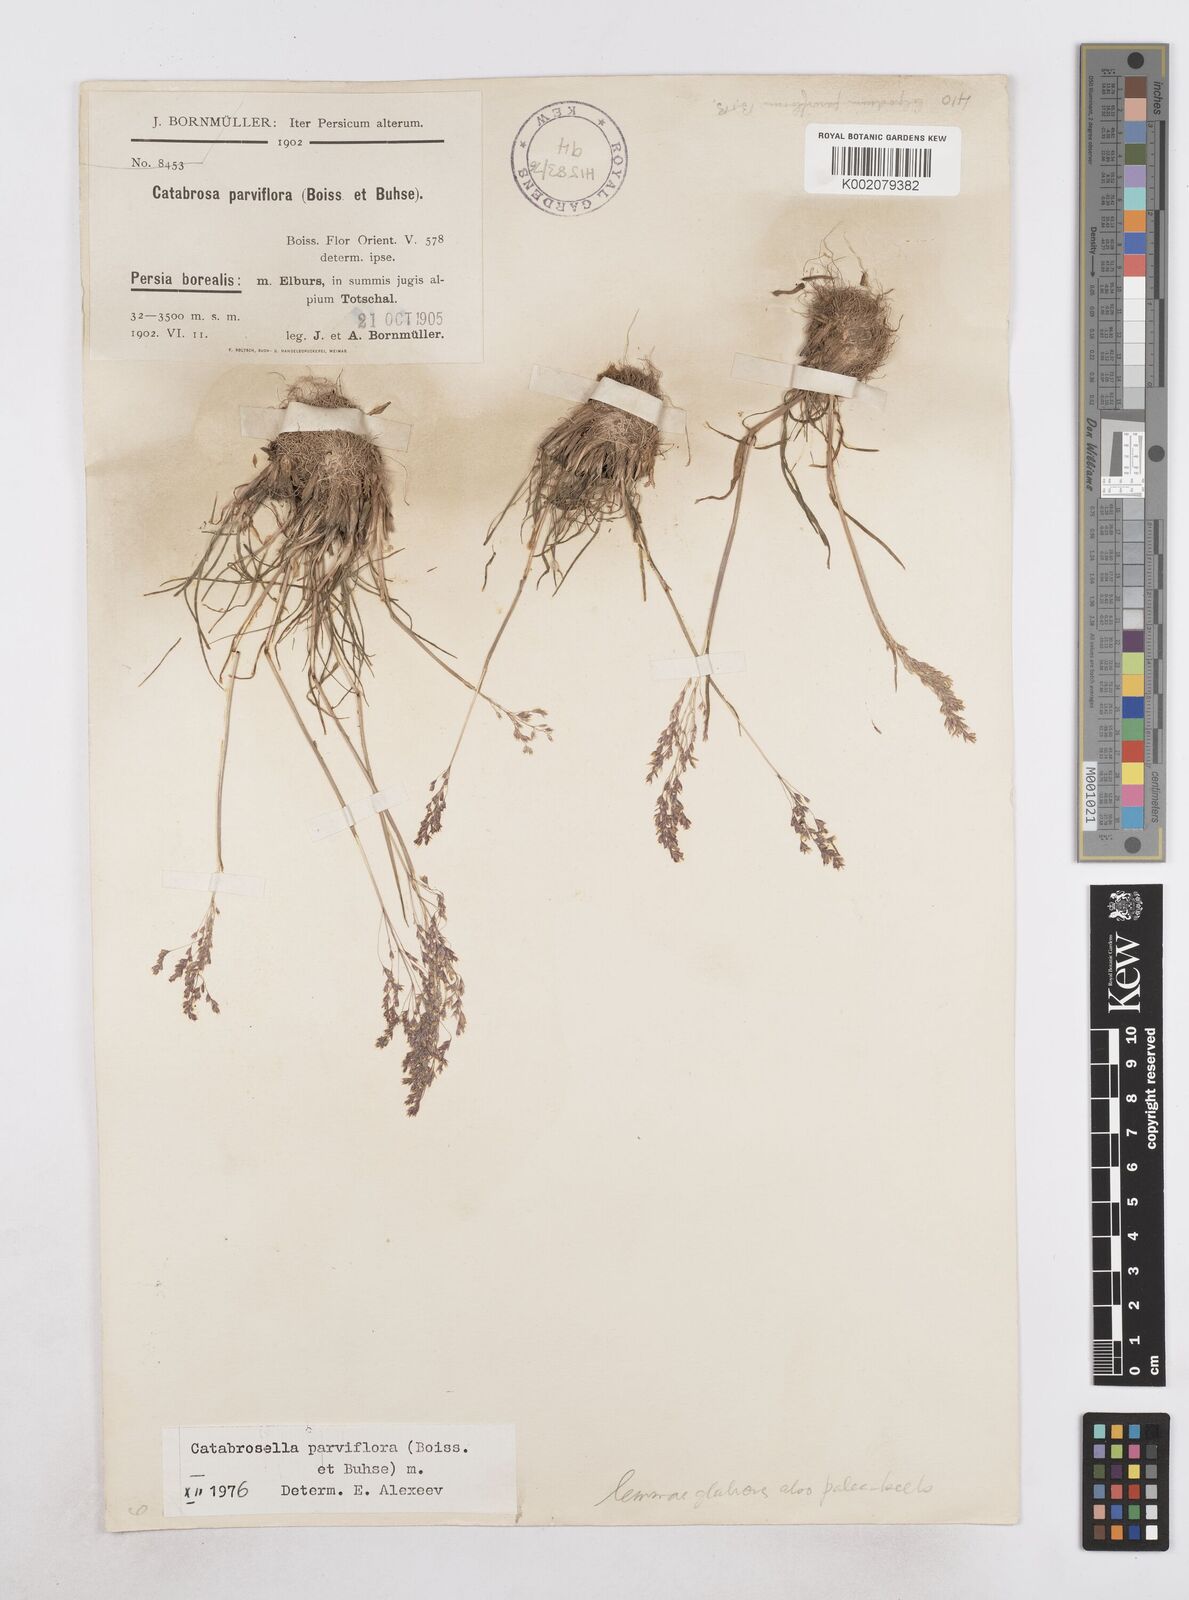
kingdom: Plantae
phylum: Tracheophyta
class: Liliopsida
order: Poales
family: Poaceae
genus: Catabrosella
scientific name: Catabrosella humilis
